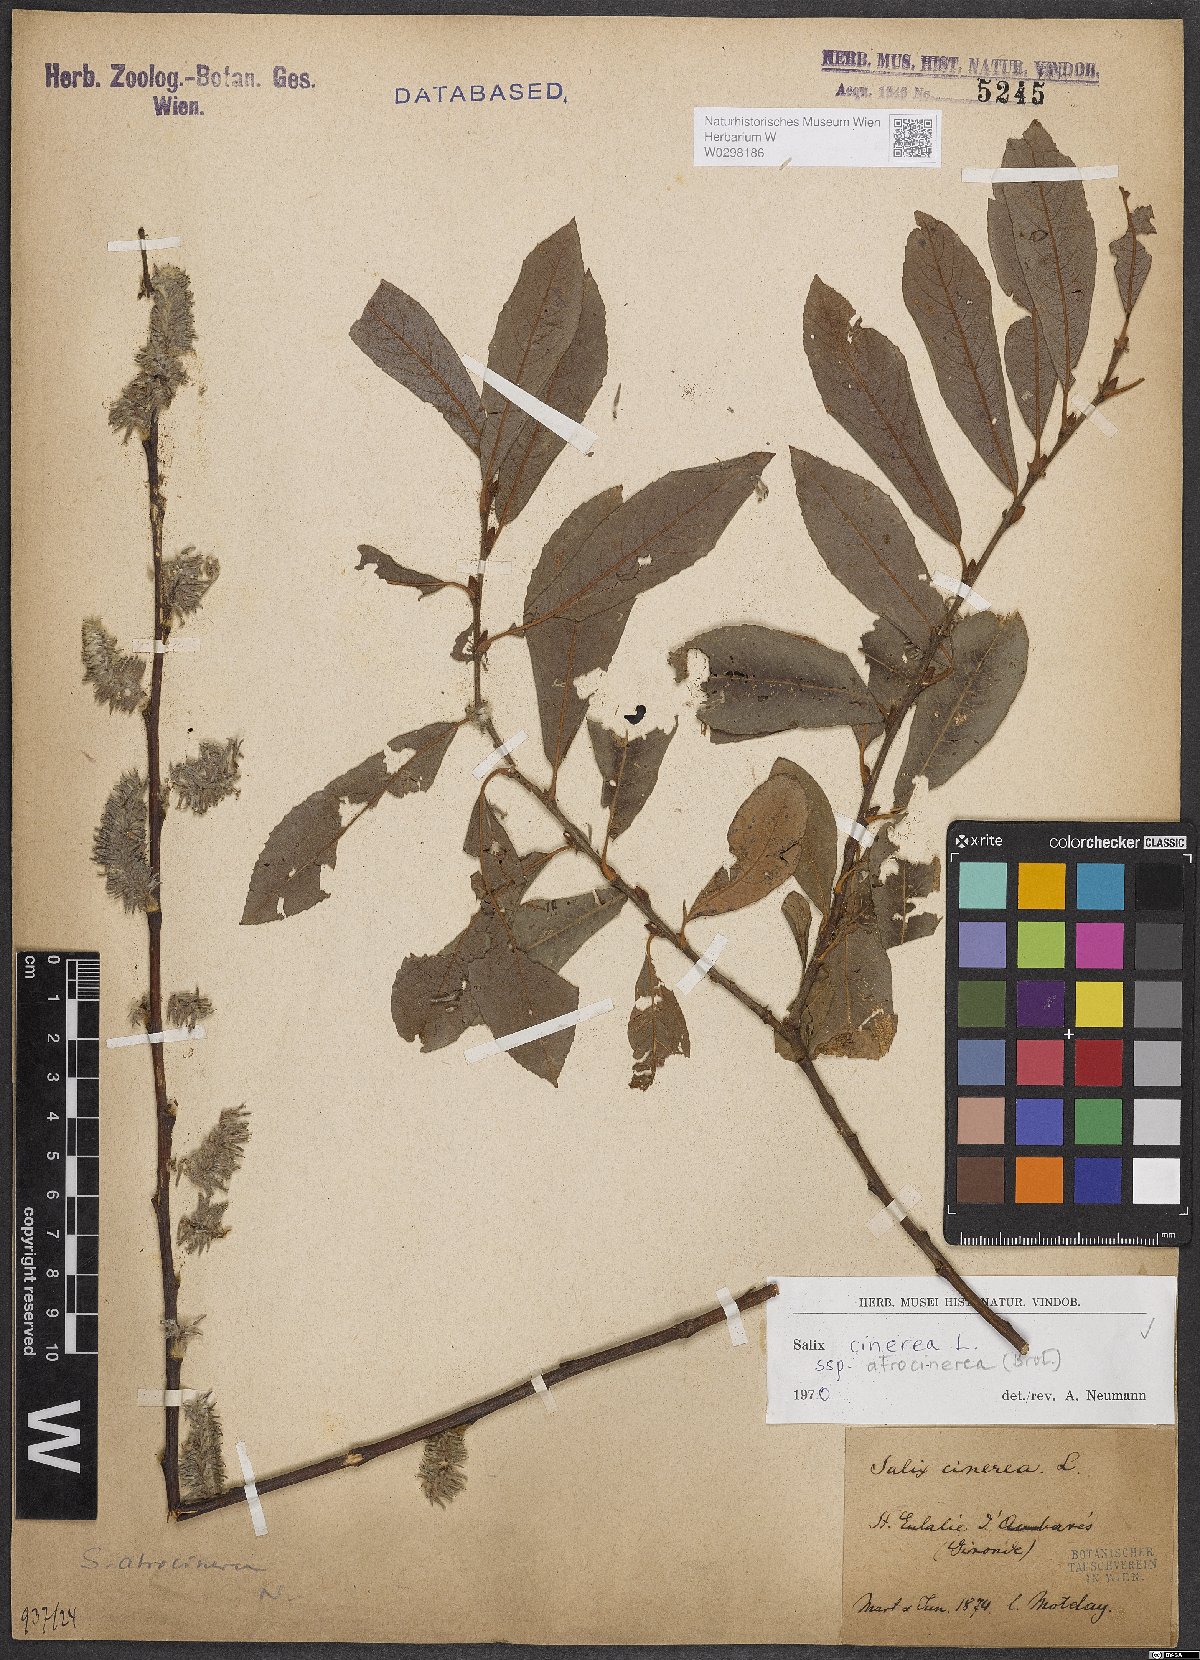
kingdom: Plantae
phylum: Tracheophyta
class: Magnoliopsida
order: Malpighiales
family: Salicaceae
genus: Salix
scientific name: Salix atrocinerea
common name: Rusty willow
